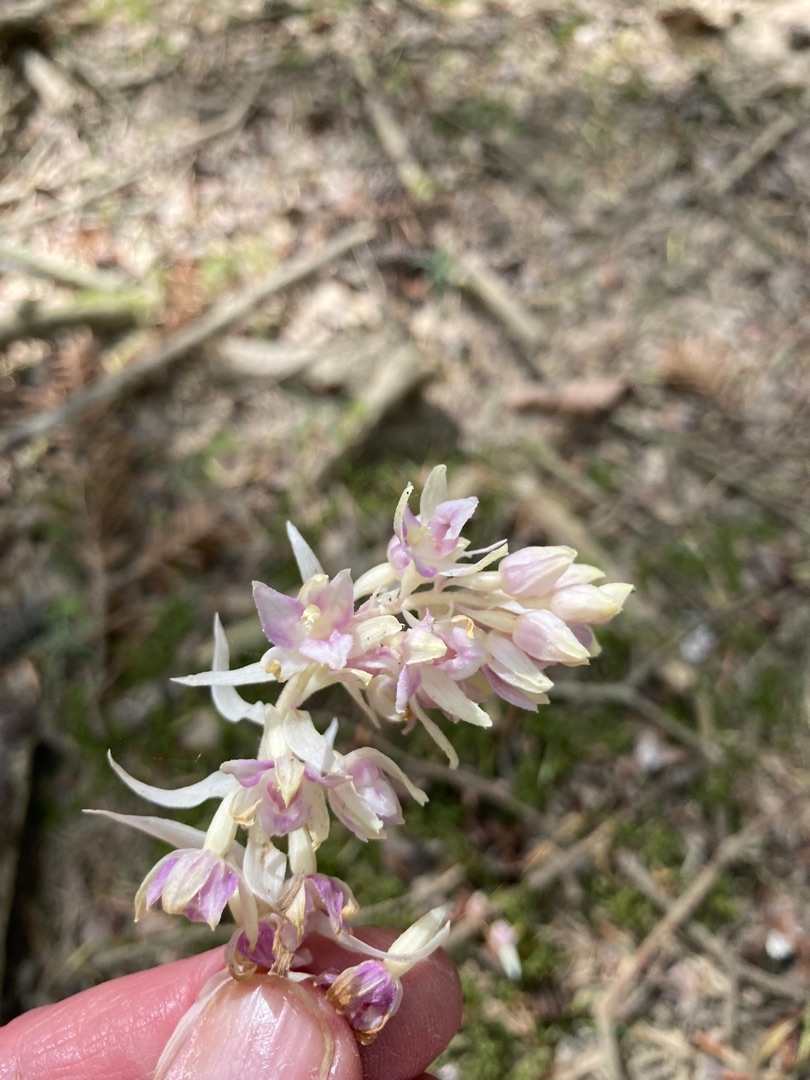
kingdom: Plantae
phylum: Tracheophyta
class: Liliopsida
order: Asparagales
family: Orchidaceae
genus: Epipactis
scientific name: Epipactis helleborine
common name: Hollandsk hullæbe
